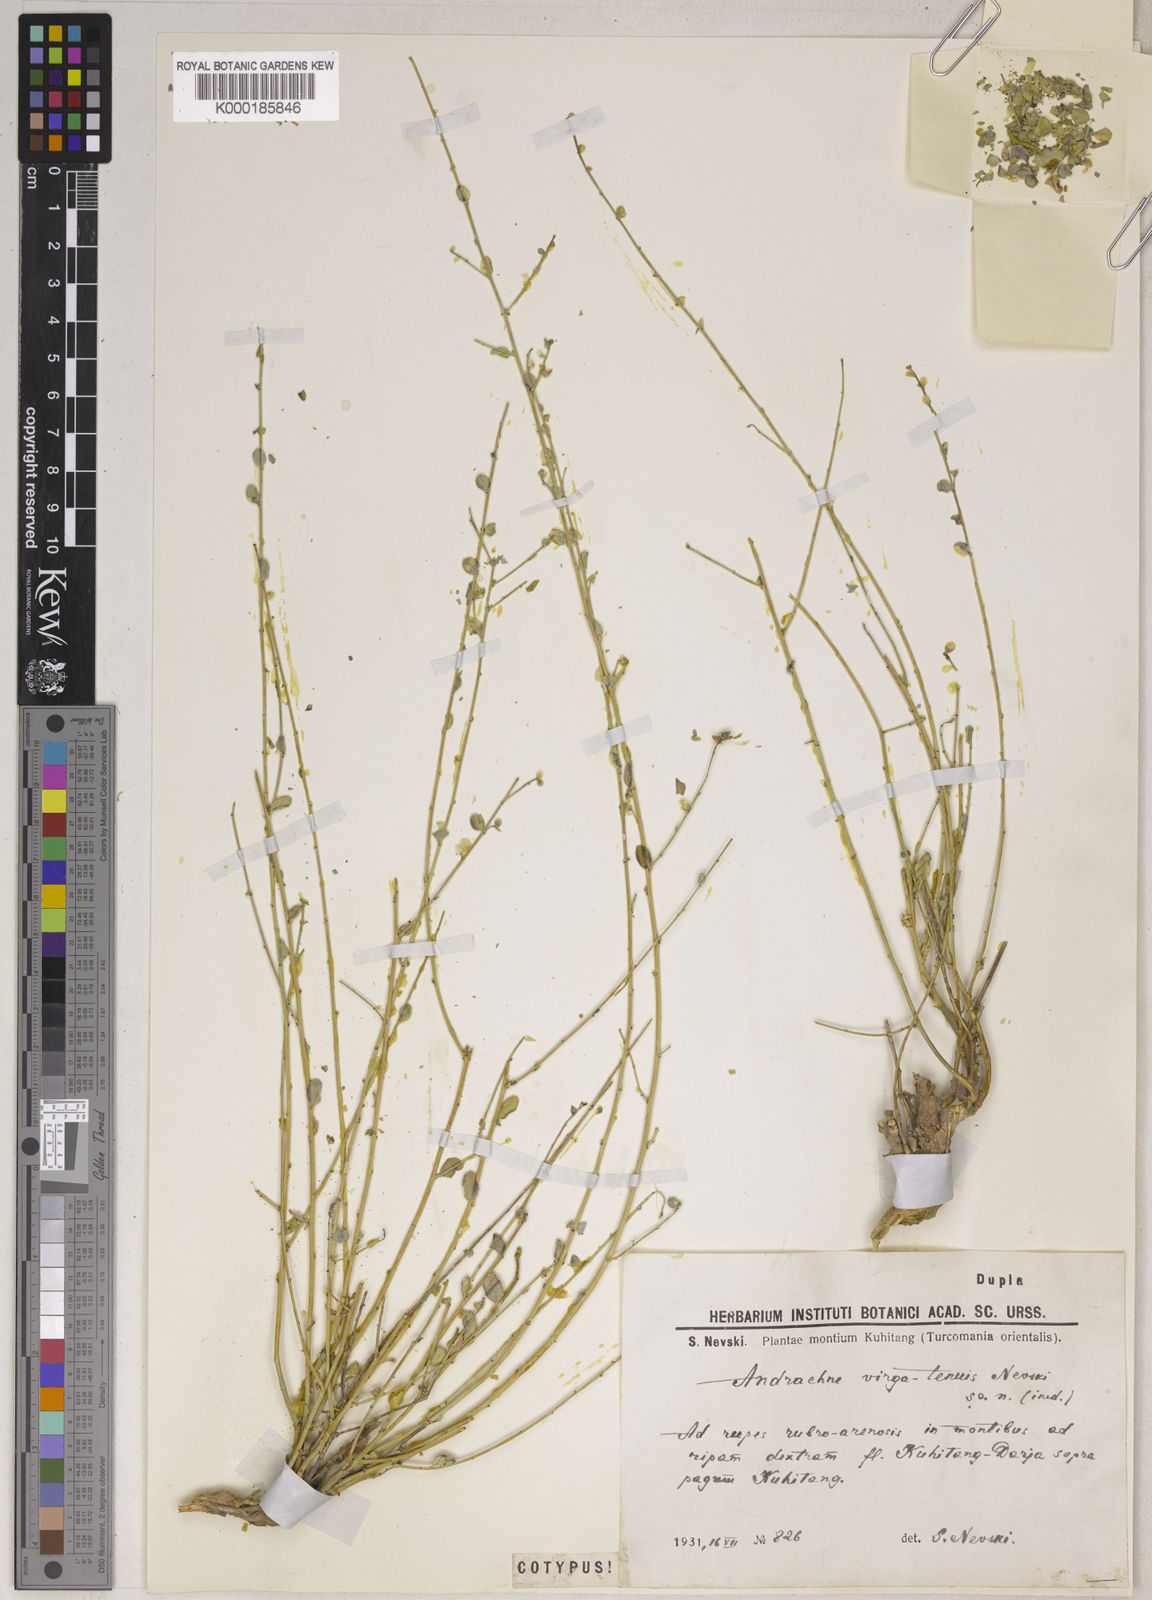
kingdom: Plantae
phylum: Tracheophyta
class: Magnoliopsida
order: Malpighiales
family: Phyllanthaceae
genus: Andrachne
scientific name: Andrachne telephioides
